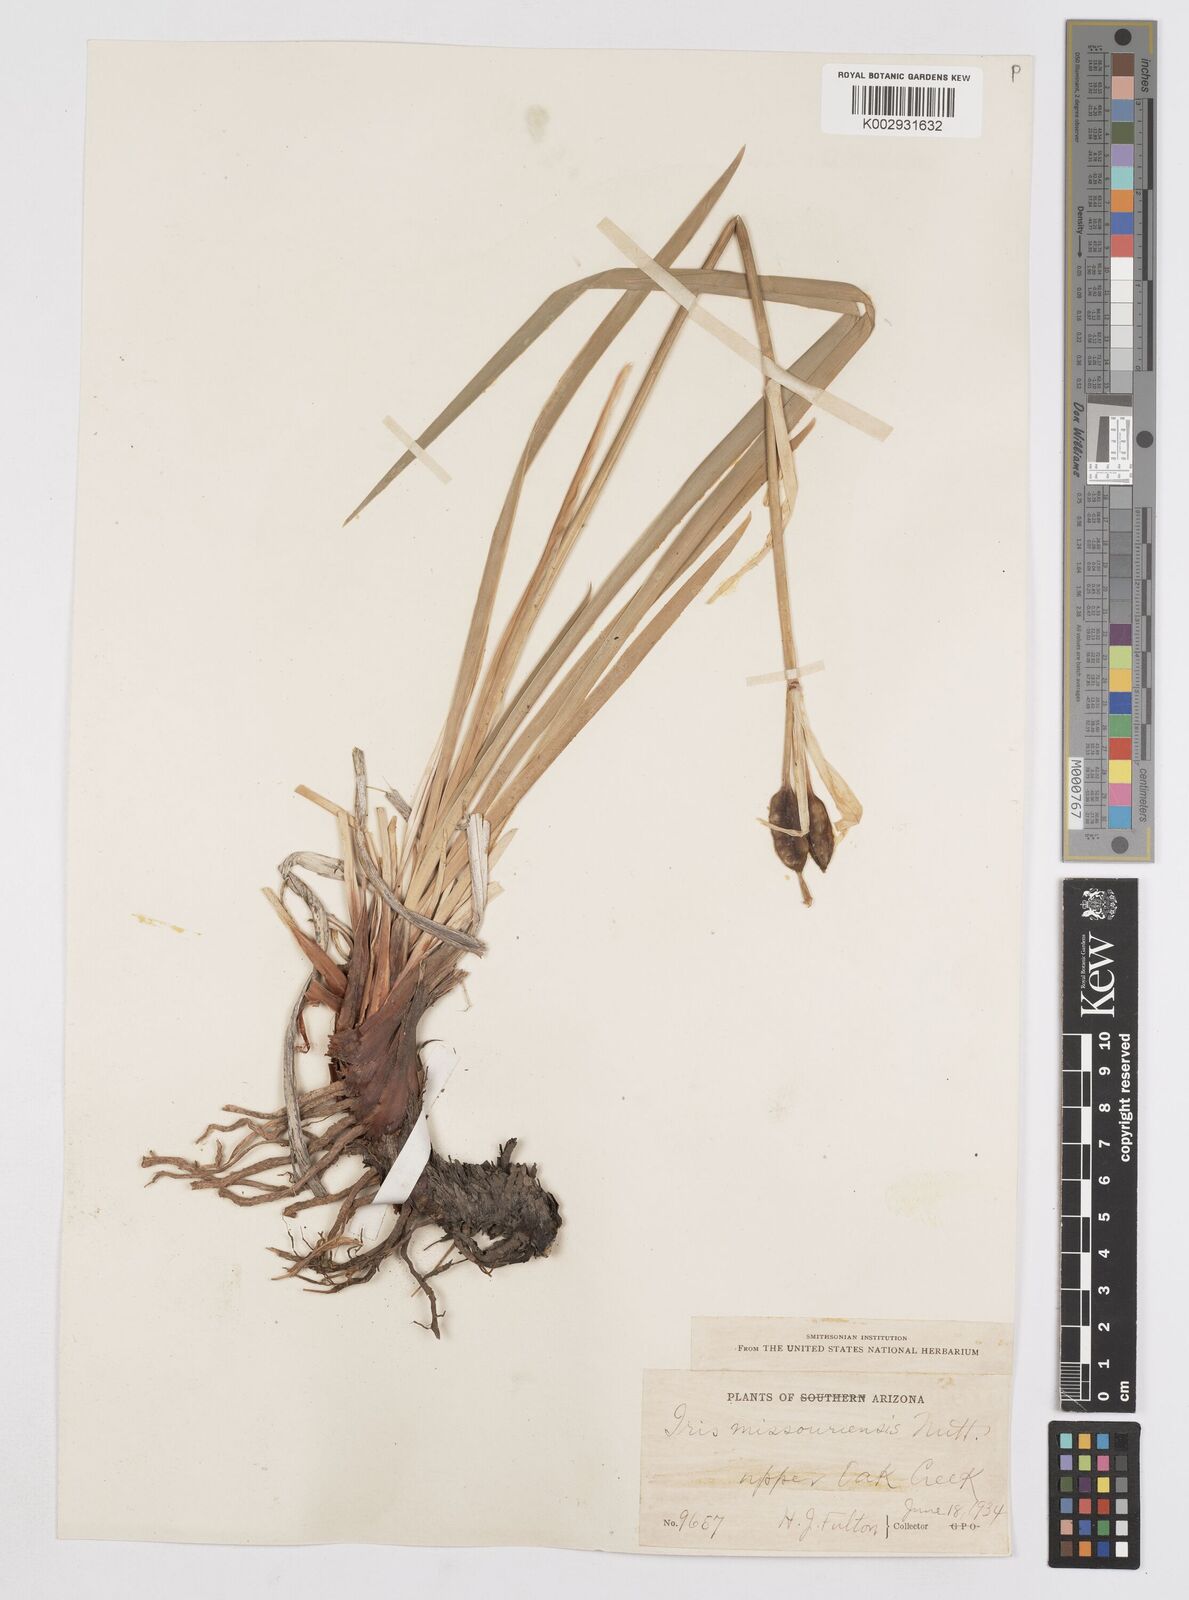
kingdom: Plantae
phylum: Tracheophyta
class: Liliopsida
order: Asparagales
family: Iridaceae
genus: Iris
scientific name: Iris missouriensis
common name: Rocky mountain iris
